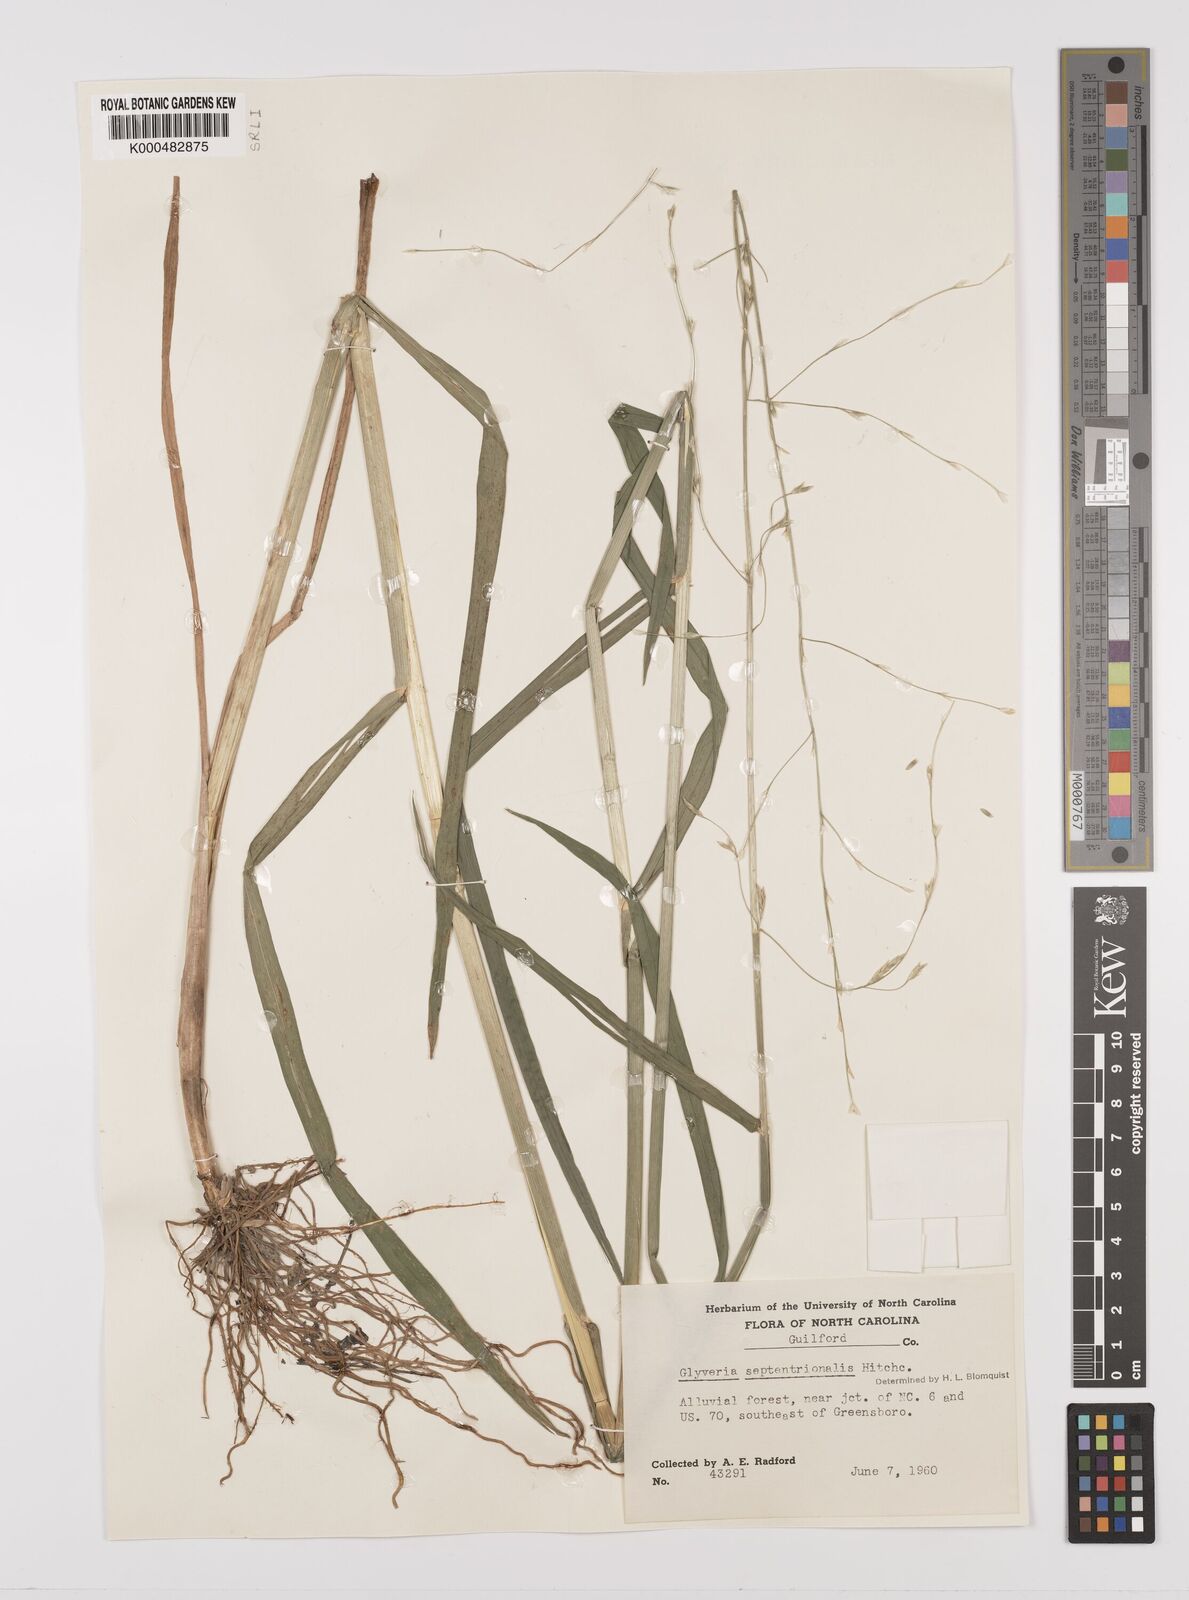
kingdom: Plantae
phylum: Tracheophyta
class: Liliopsida
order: Poales
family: Poaceae
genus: Glyceria
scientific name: Glyceria septentrionalis
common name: Eastern mannagrass
